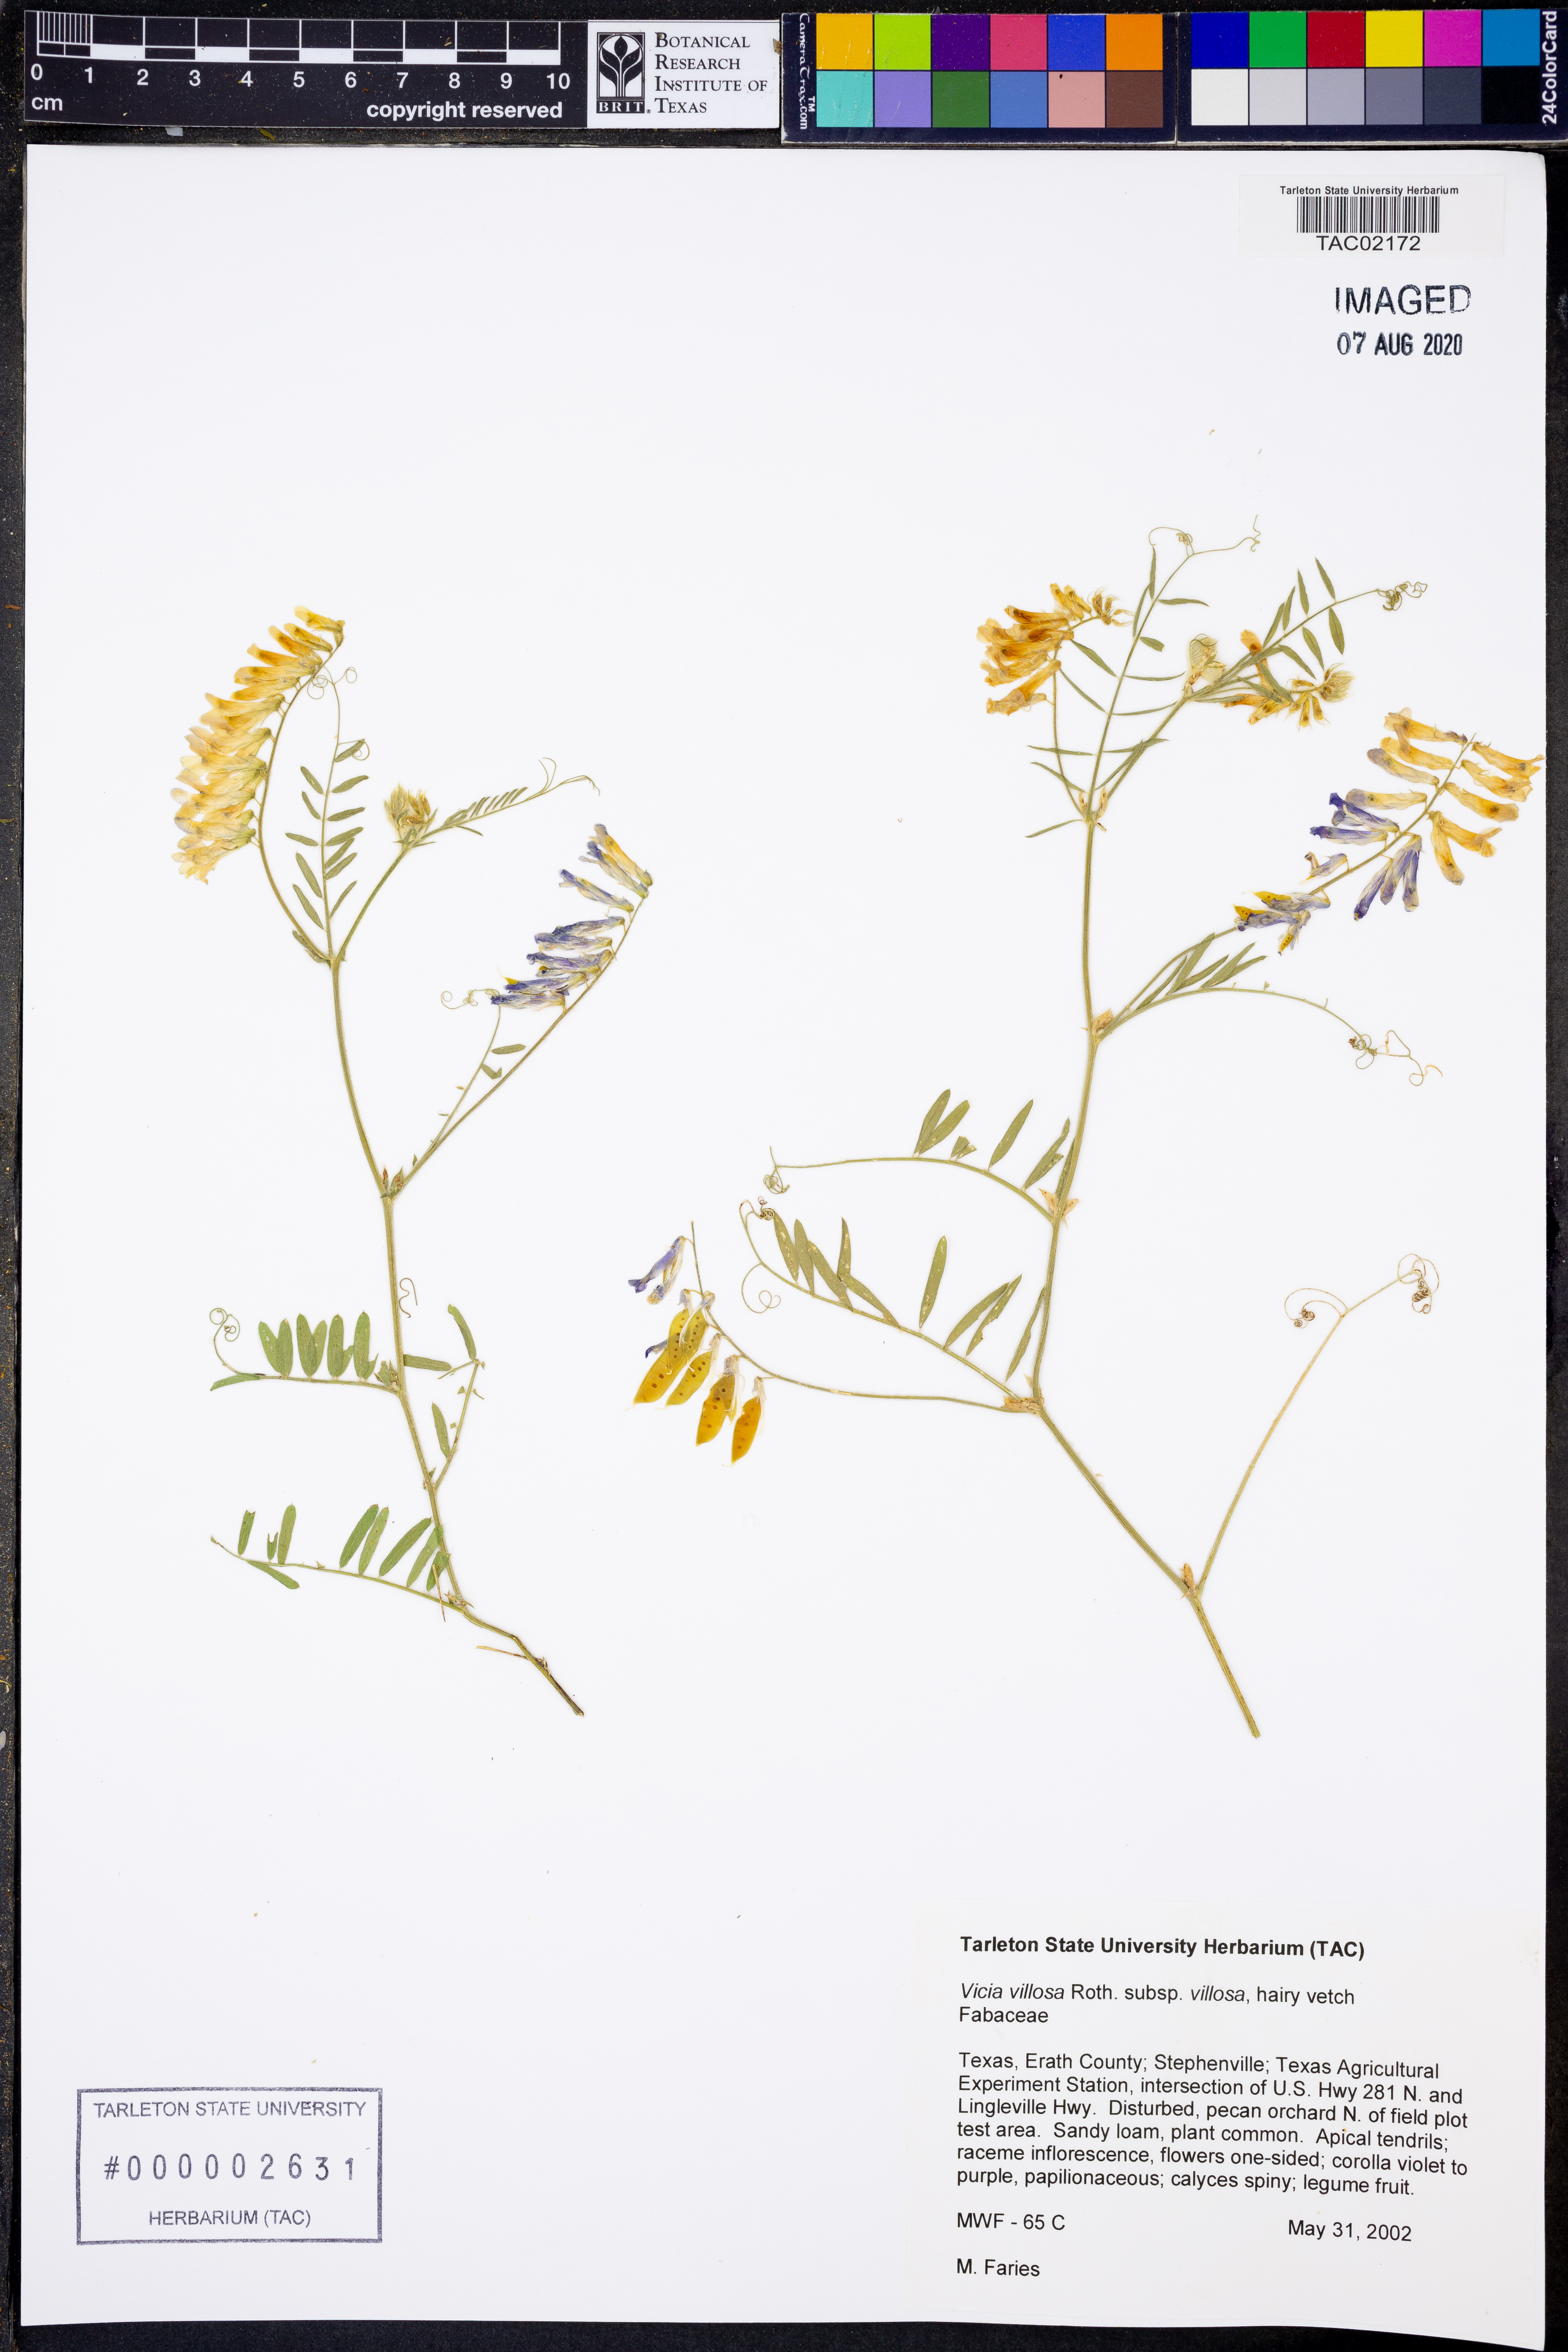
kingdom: Plantae
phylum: Tracheophyta
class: Magnoliopsida
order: Fabales
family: Fabaceae
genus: Vicia
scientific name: Vicia villosa
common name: Fodder vetch
